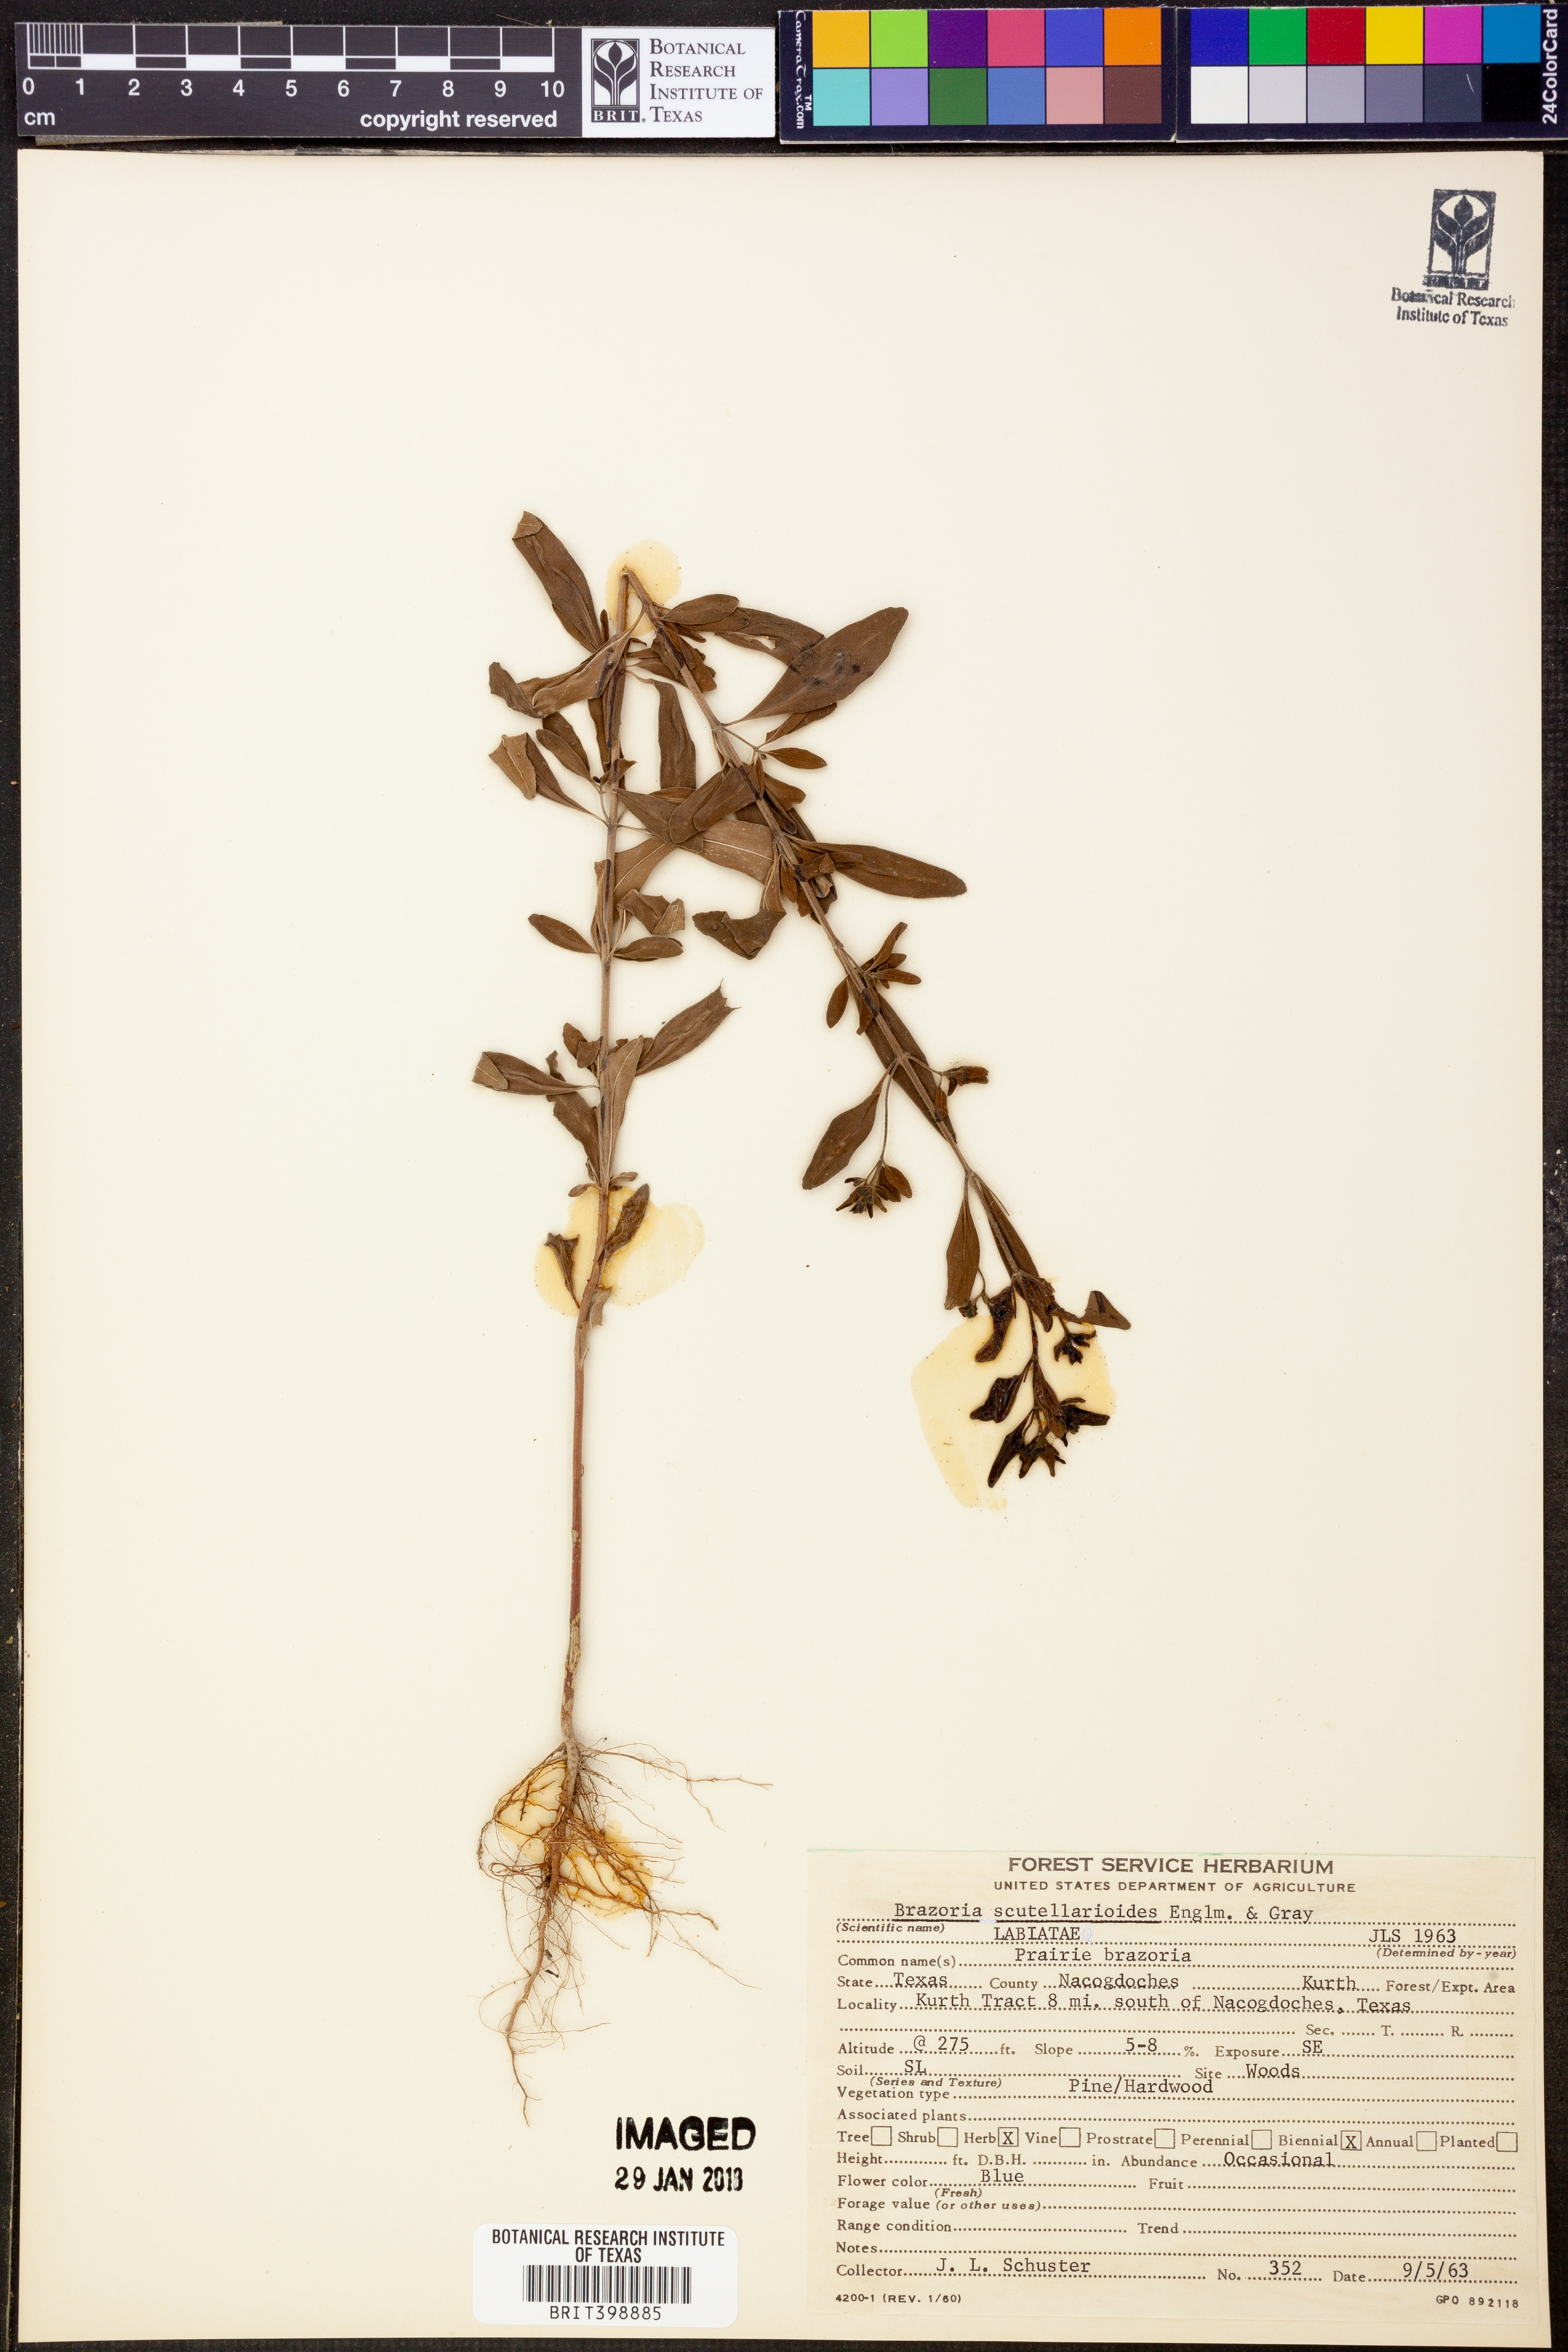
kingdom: Plantae
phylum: Tracheophyta
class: Magnoliopsida
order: Lamiales
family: Lamiaceae
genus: Warnockia
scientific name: Warnockia scutellarioides
